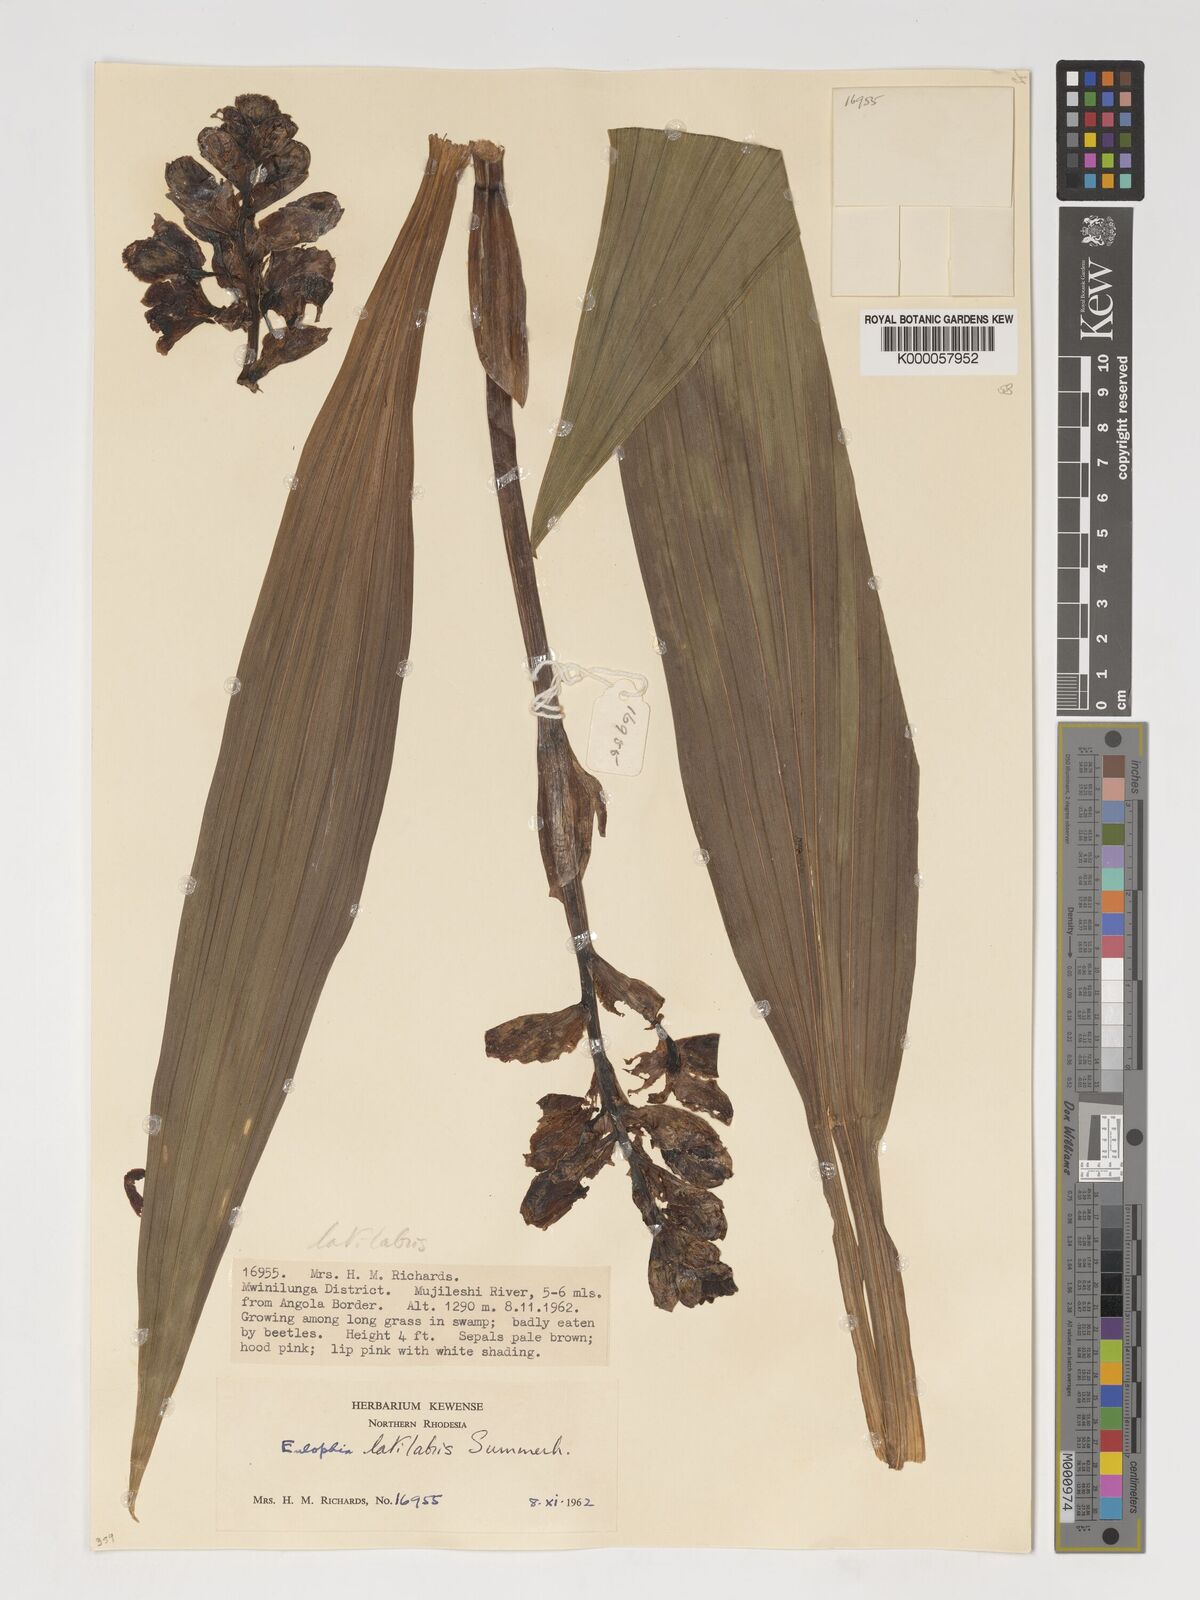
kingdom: Plantae
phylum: Tracheophyta
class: Liliopsida
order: Asparagales
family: Orchidaceae
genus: Eulophia
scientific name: Eulophia latilabris
